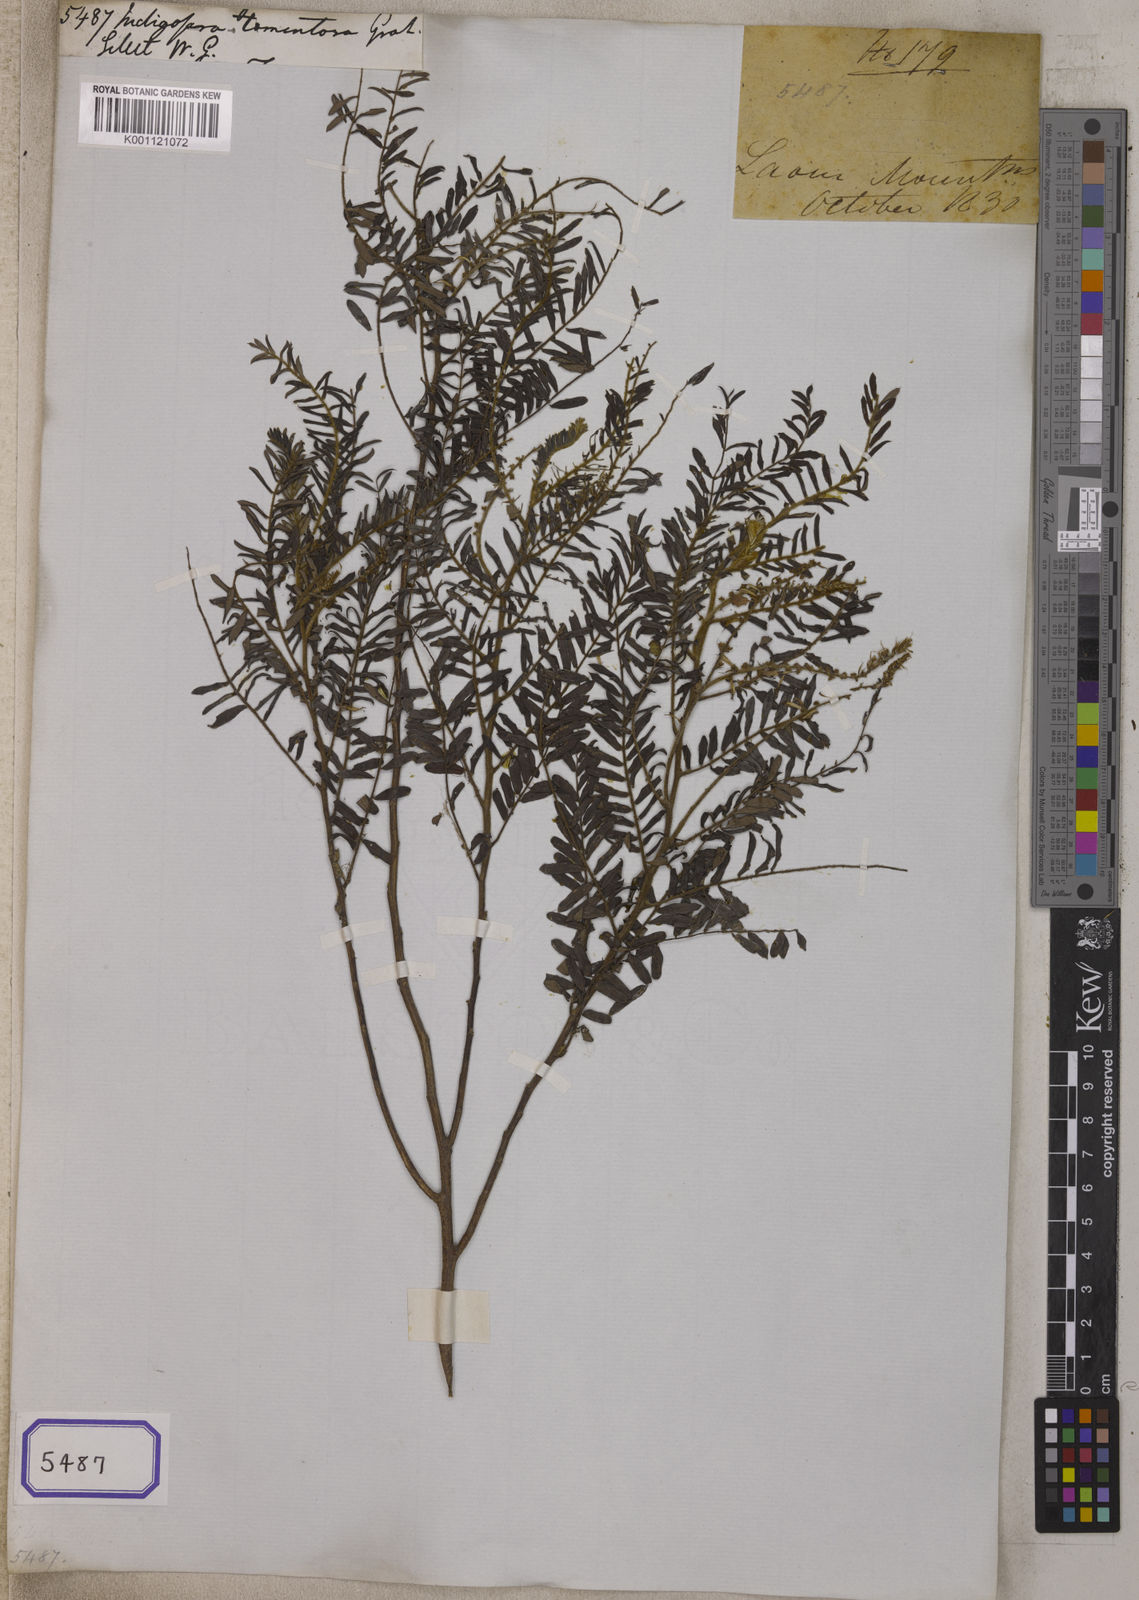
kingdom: Plantae
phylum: Tracheophyta
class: Magnoliopsida
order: Fabales
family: Fabaceae
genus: Indigofera
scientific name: Indigofera dosua
